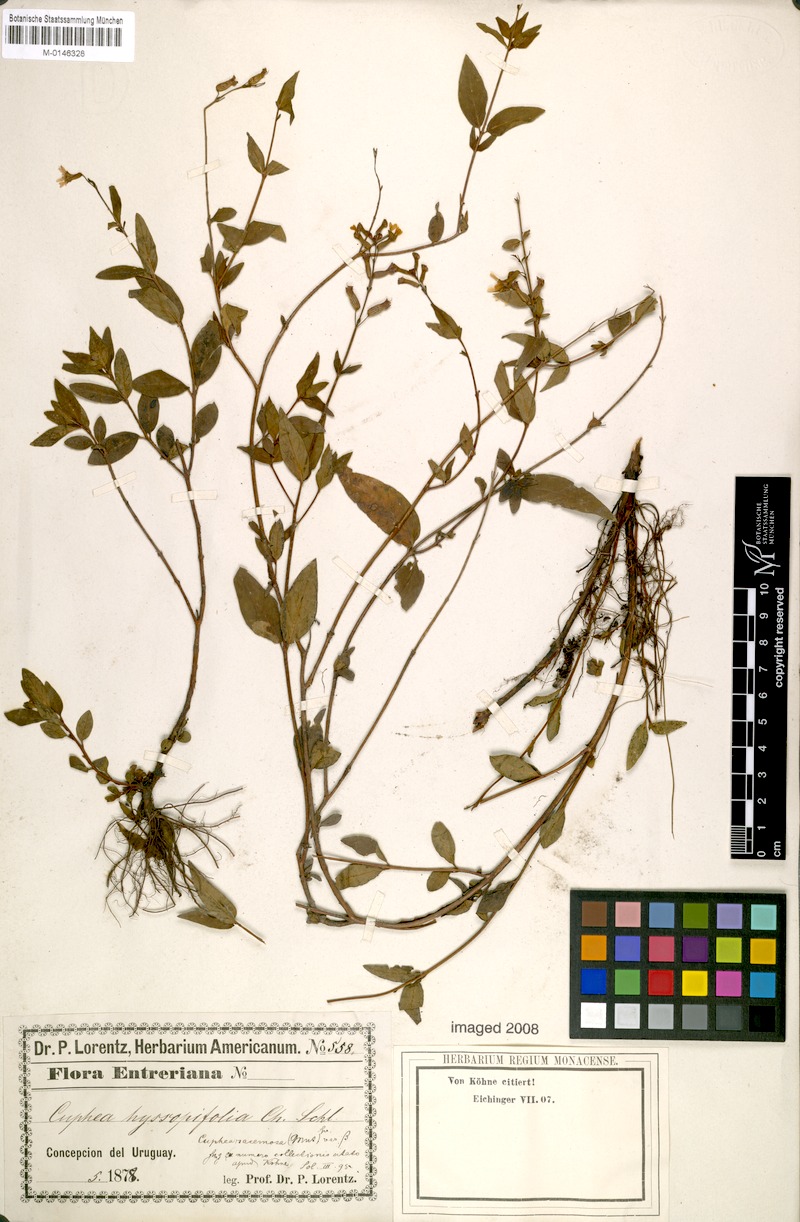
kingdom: Plantae
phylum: Tracheophyta
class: Magnoliopsida
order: Myrtales
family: Lythraceae
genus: Cuphea
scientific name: Cuphea racemosa
